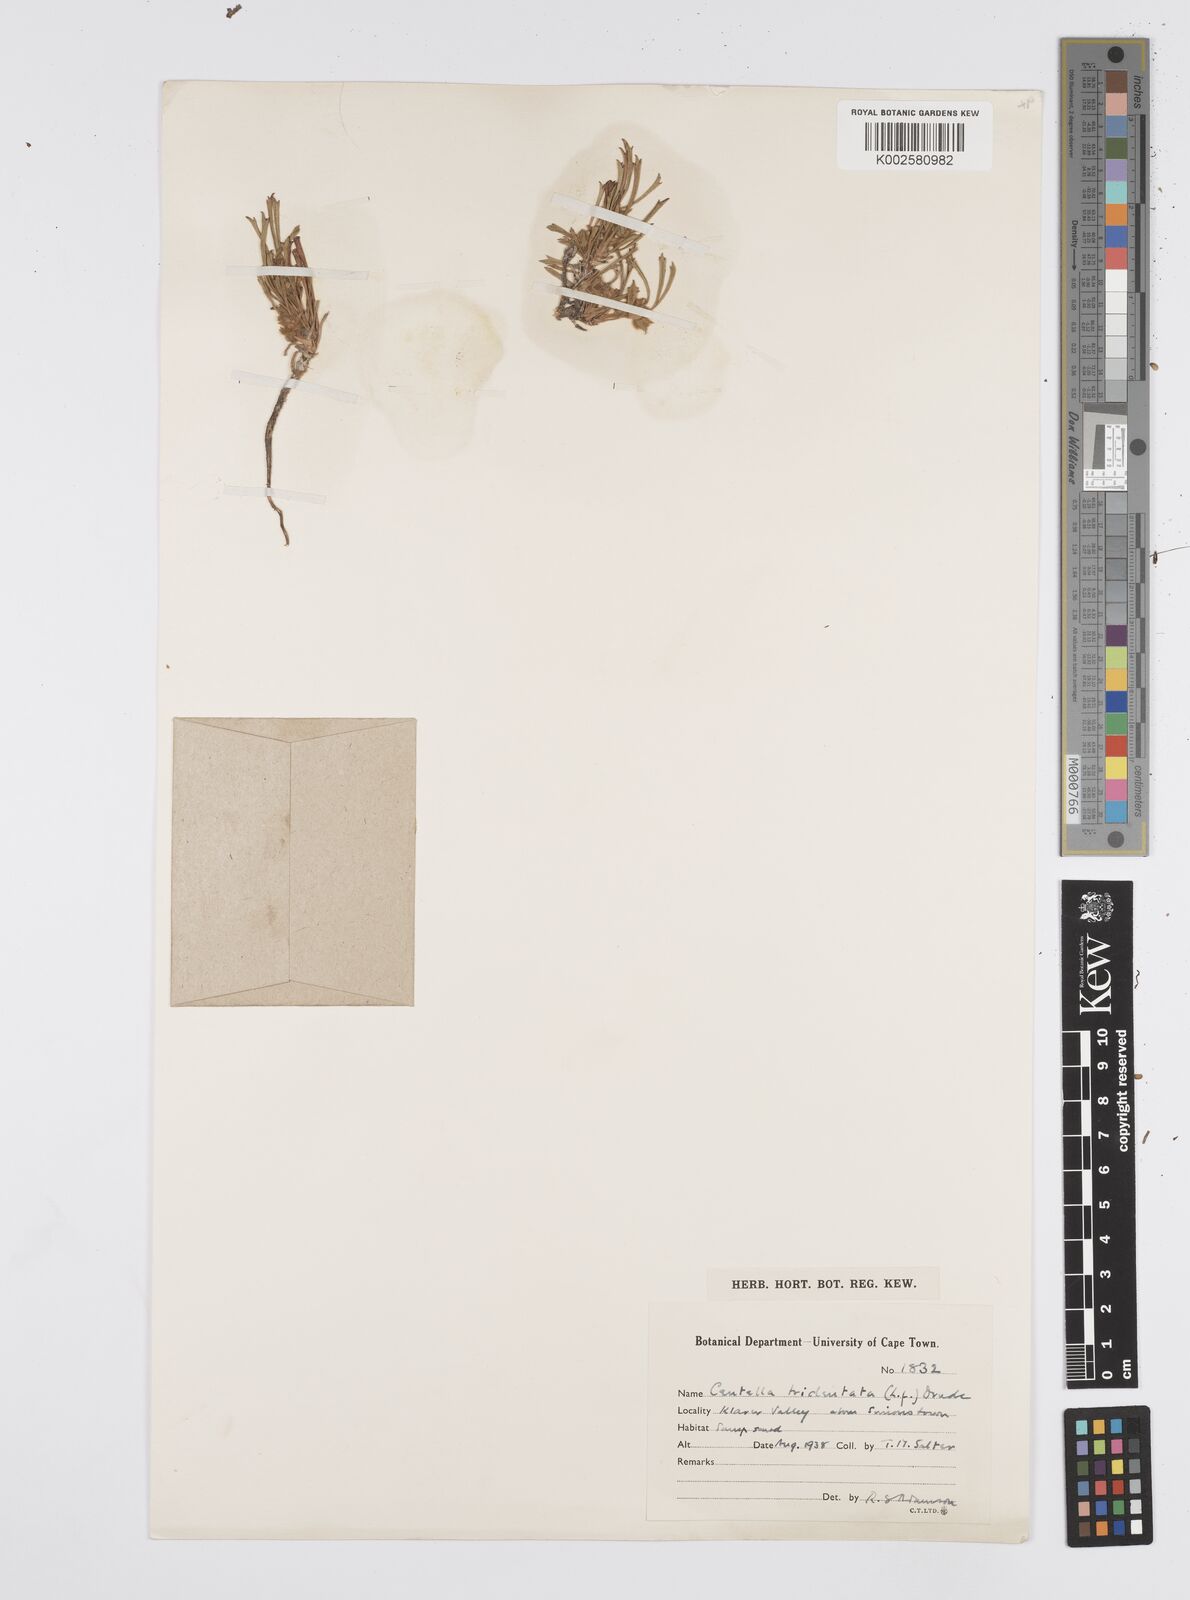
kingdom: Plantae
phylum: Tracheophyta
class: Magnoliopsida
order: Apiales
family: Apiaceae
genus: Centella
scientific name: Centella tridentata
